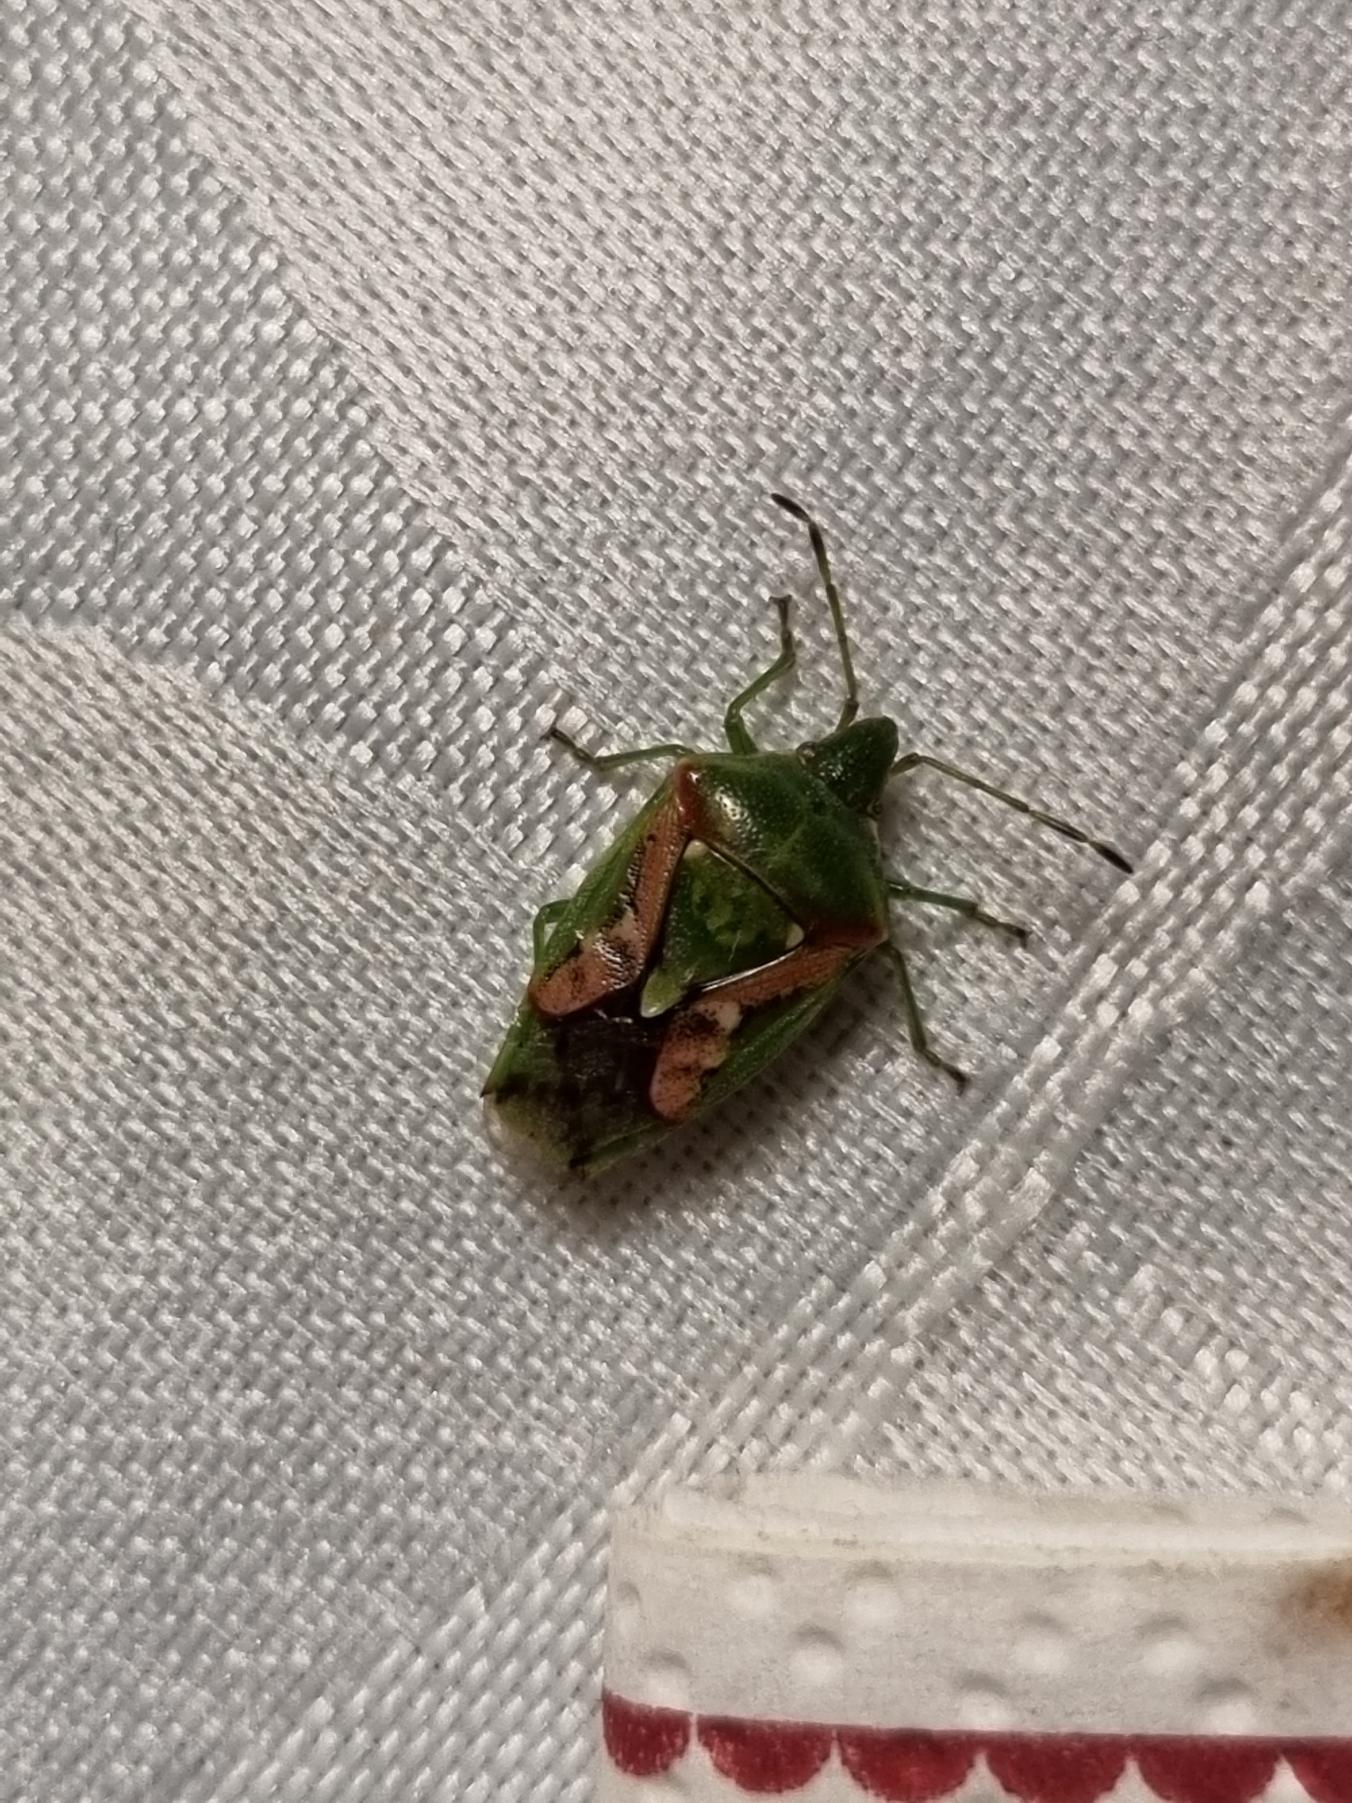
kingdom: Animalia
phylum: Arthropoda
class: Insecta
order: Hemiptera
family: Acanthosomatidae
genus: Cyphostethus
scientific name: Cyphostethus tristriatus
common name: Slank enebærtæge
